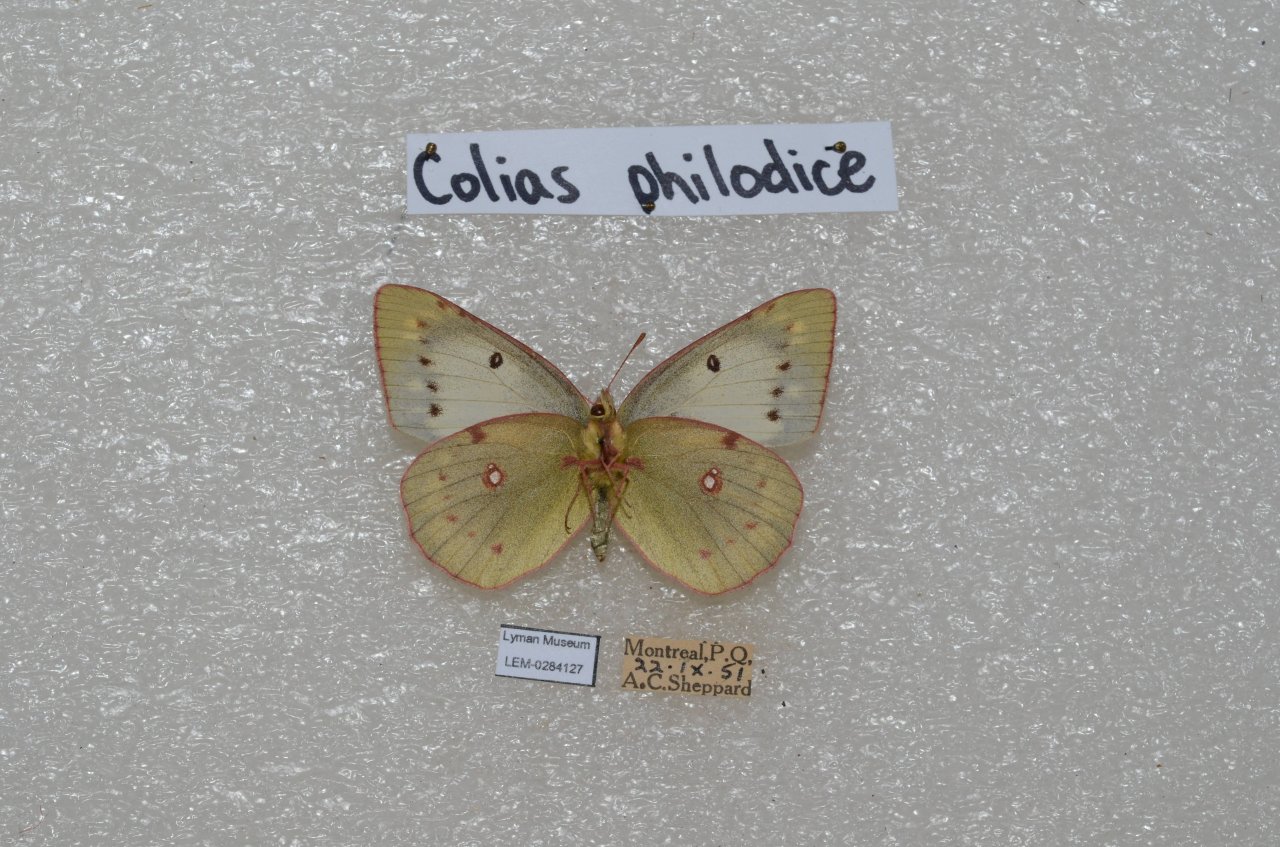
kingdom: Animalia
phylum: Arthropoda
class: Insecta
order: Lepidoptera
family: Pieridae
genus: Colias
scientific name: Colias philodice
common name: Clouded Sulphur
